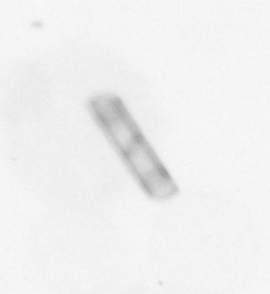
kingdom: Chromista
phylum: Ochrophyta
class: Bacillariophyceae
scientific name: Bacillariophyceae
